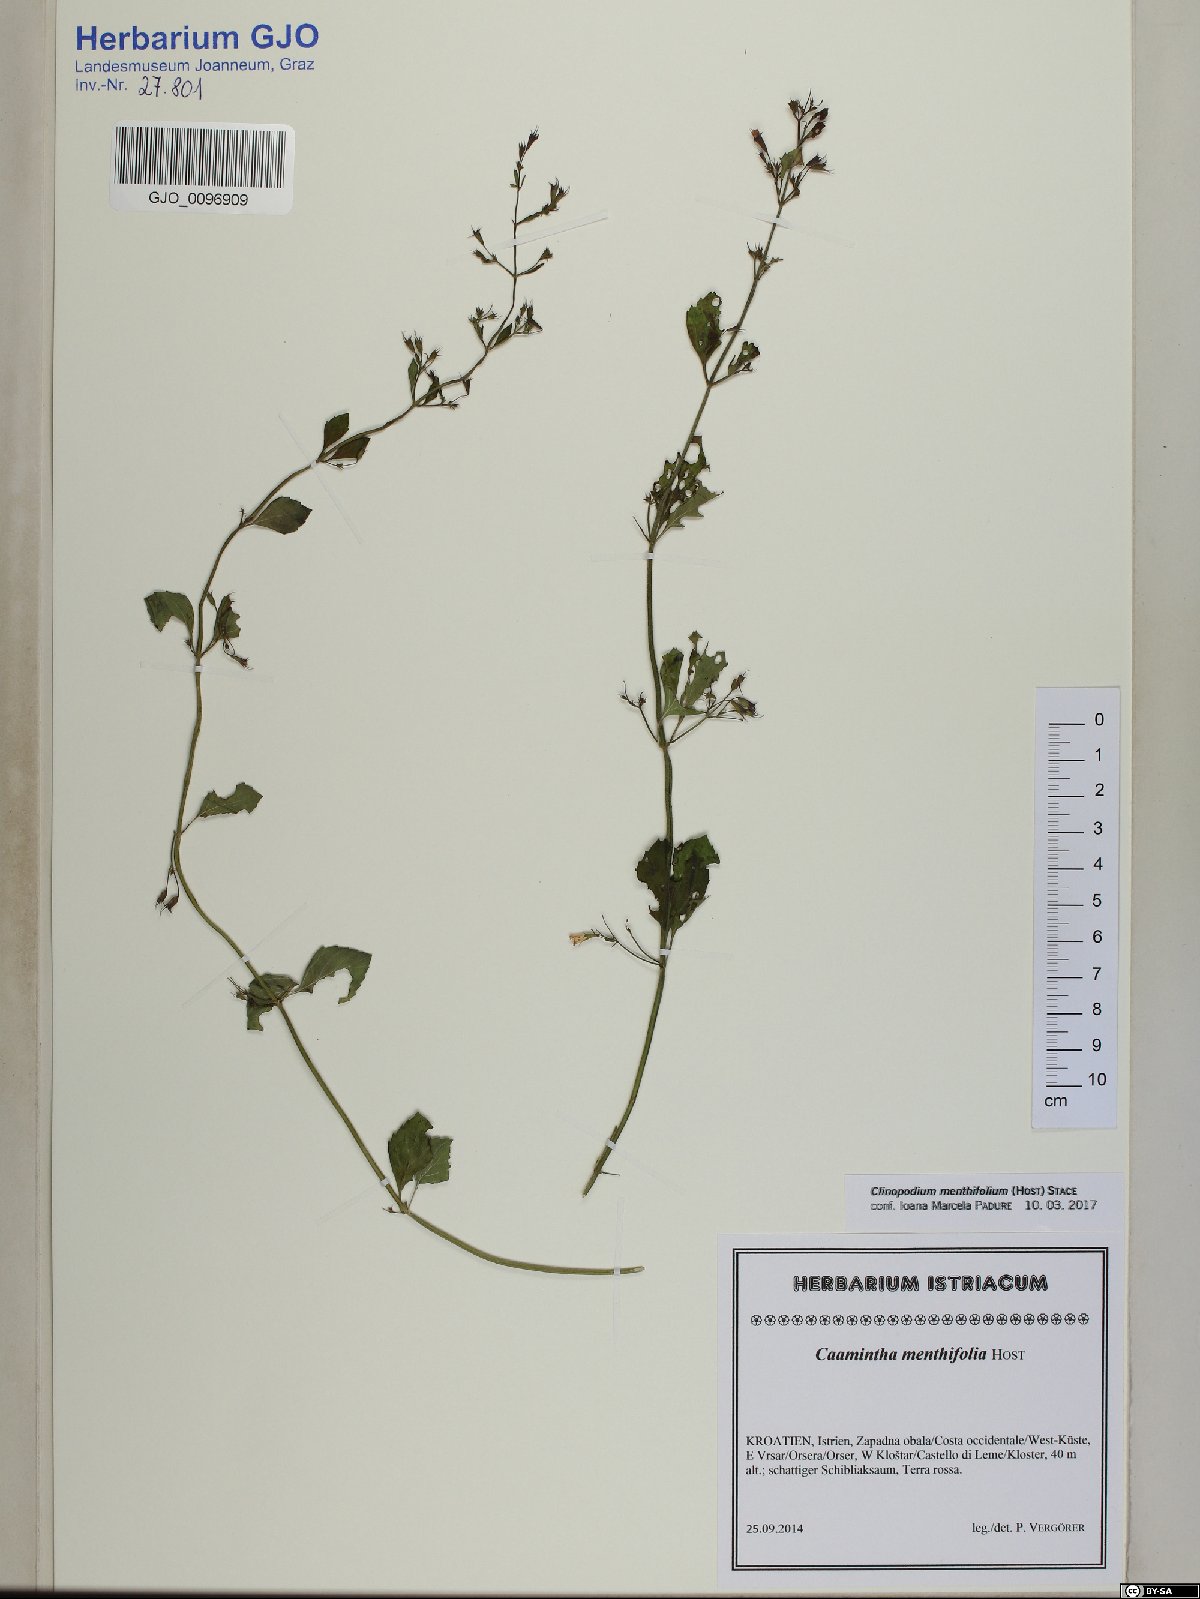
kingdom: Plantae
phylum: Tracheophyta
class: Magnoliopsida
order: Lamiales
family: Lamiaceae
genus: Clinopodium
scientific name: Clinopodium menthifolium
